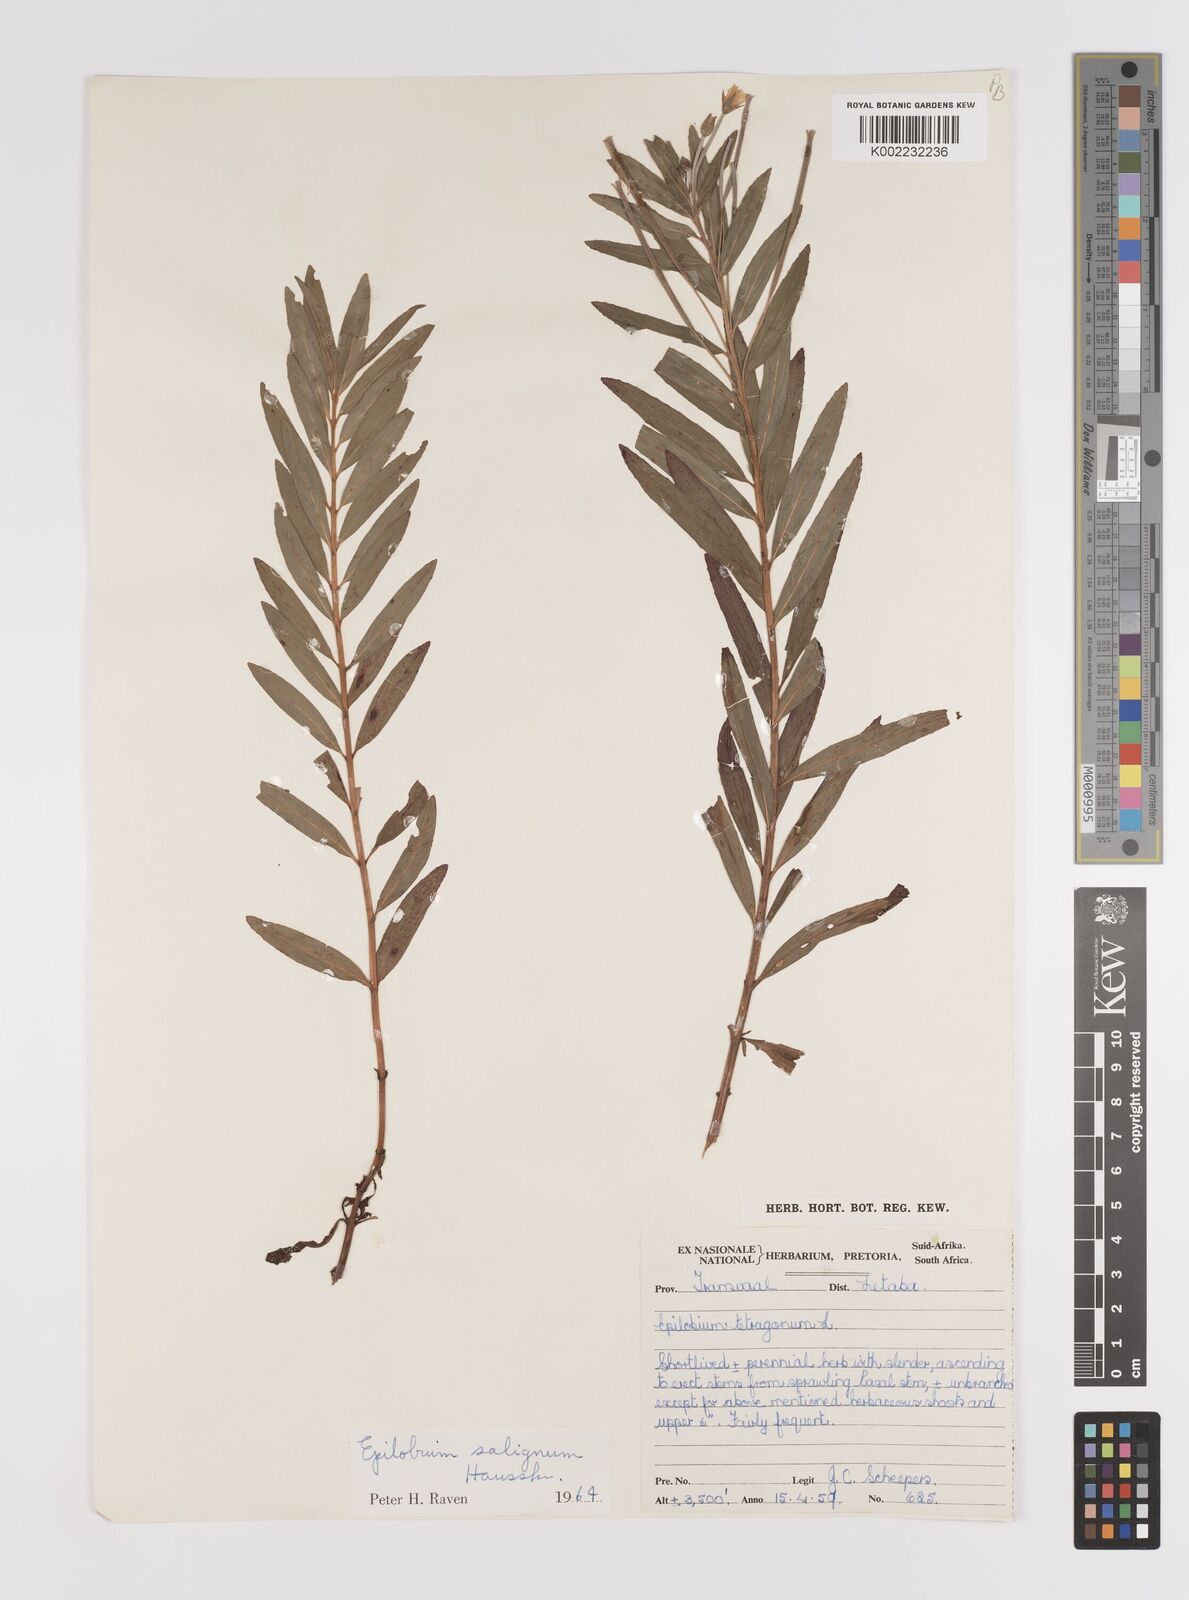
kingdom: Plantae
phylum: Tracheophyta
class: Magnoliopsida
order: Myrtales
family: Onagraceae
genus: Epilobium
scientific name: Epilobium salignum
